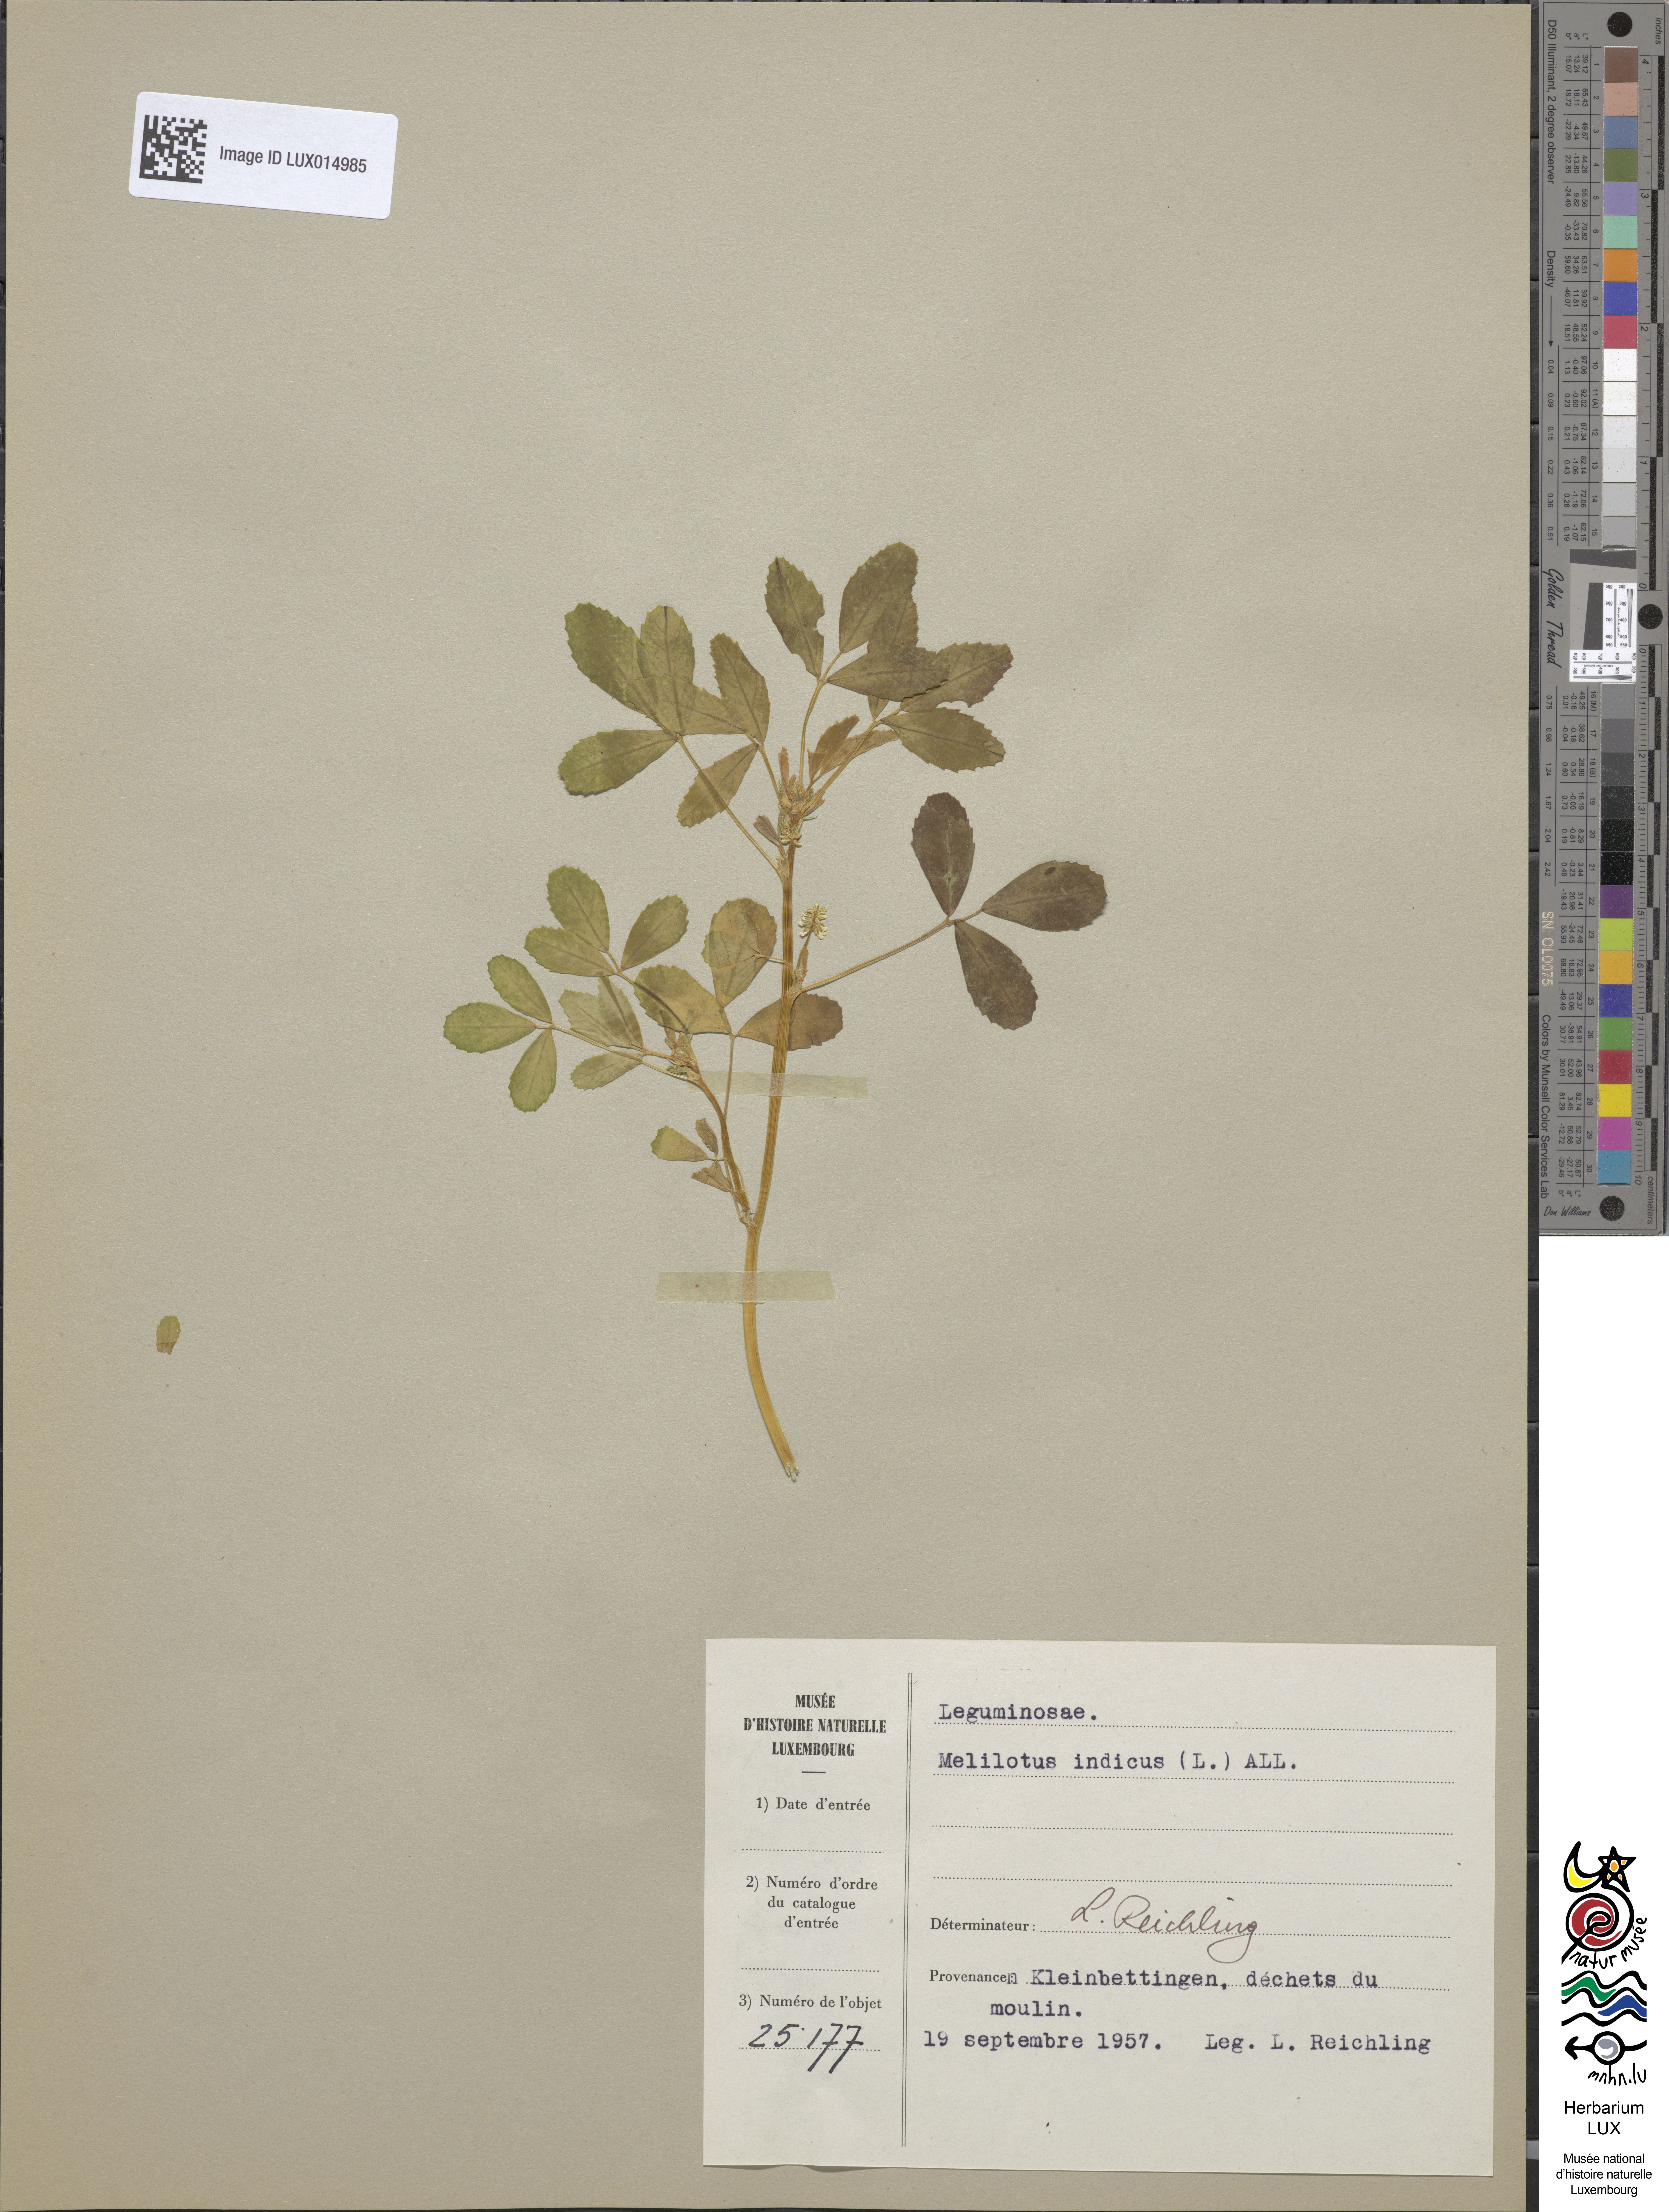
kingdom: Plantae
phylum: Tracheophyta
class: Magnoliopsida
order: Fabales
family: Fabaceae
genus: Melilotus
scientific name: Melilotus indicus
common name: Small melilot
